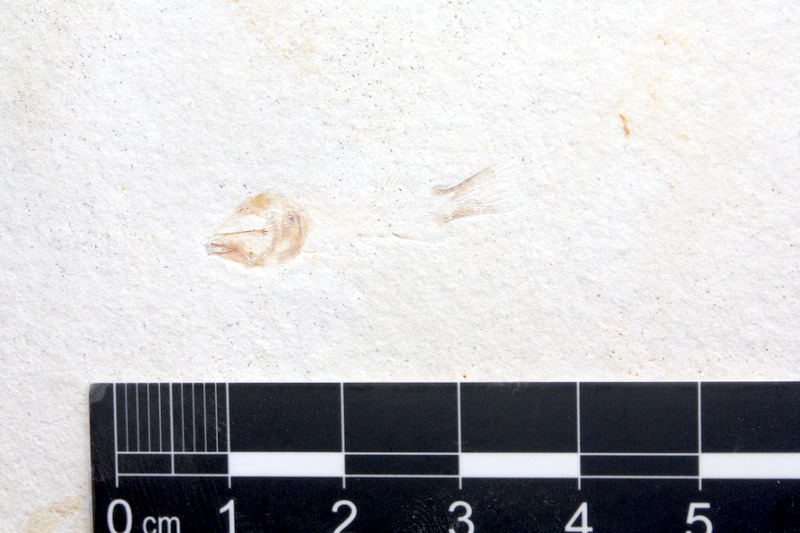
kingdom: Animalia
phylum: Chordata
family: Macrosemiidae
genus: Notagogus
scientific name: Notagogus denticulatus
